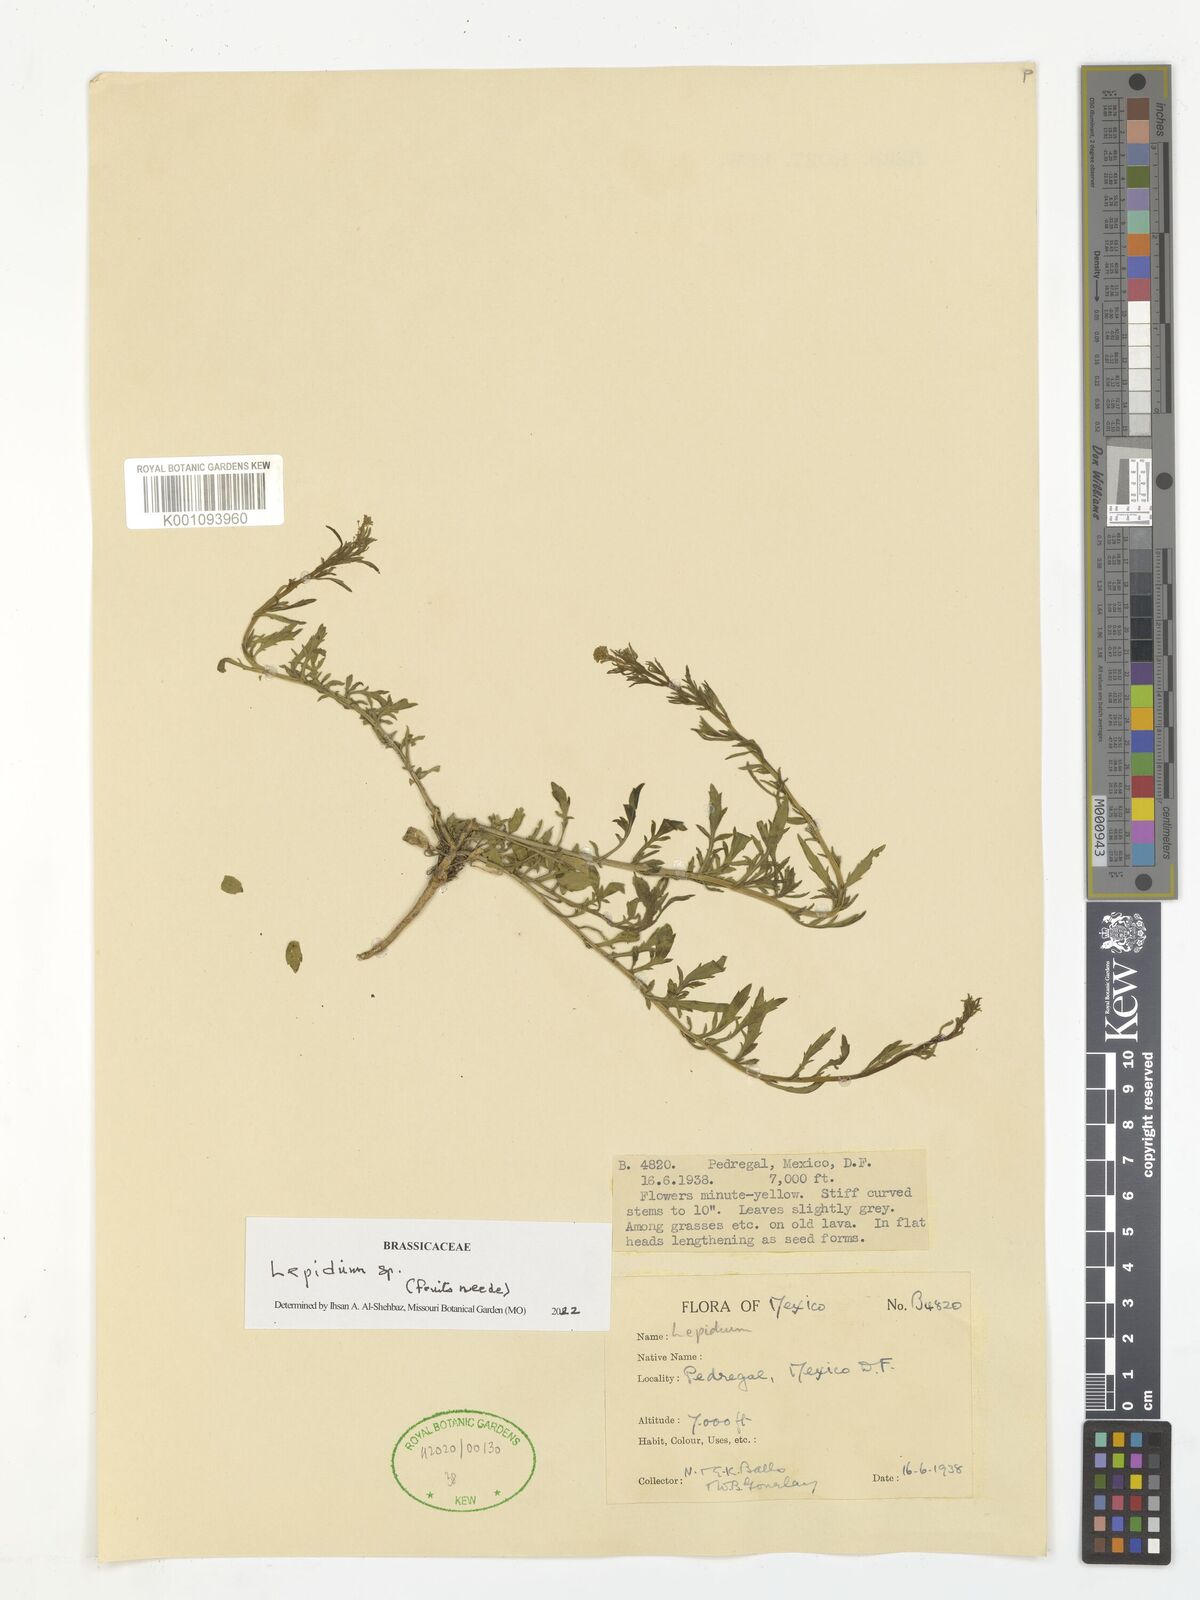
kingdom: Plantae
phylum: Tracheophyta
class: Magnoliopsida
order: Brassicales
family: Brassicaceae
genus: Lepidium
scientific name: Lepidium
